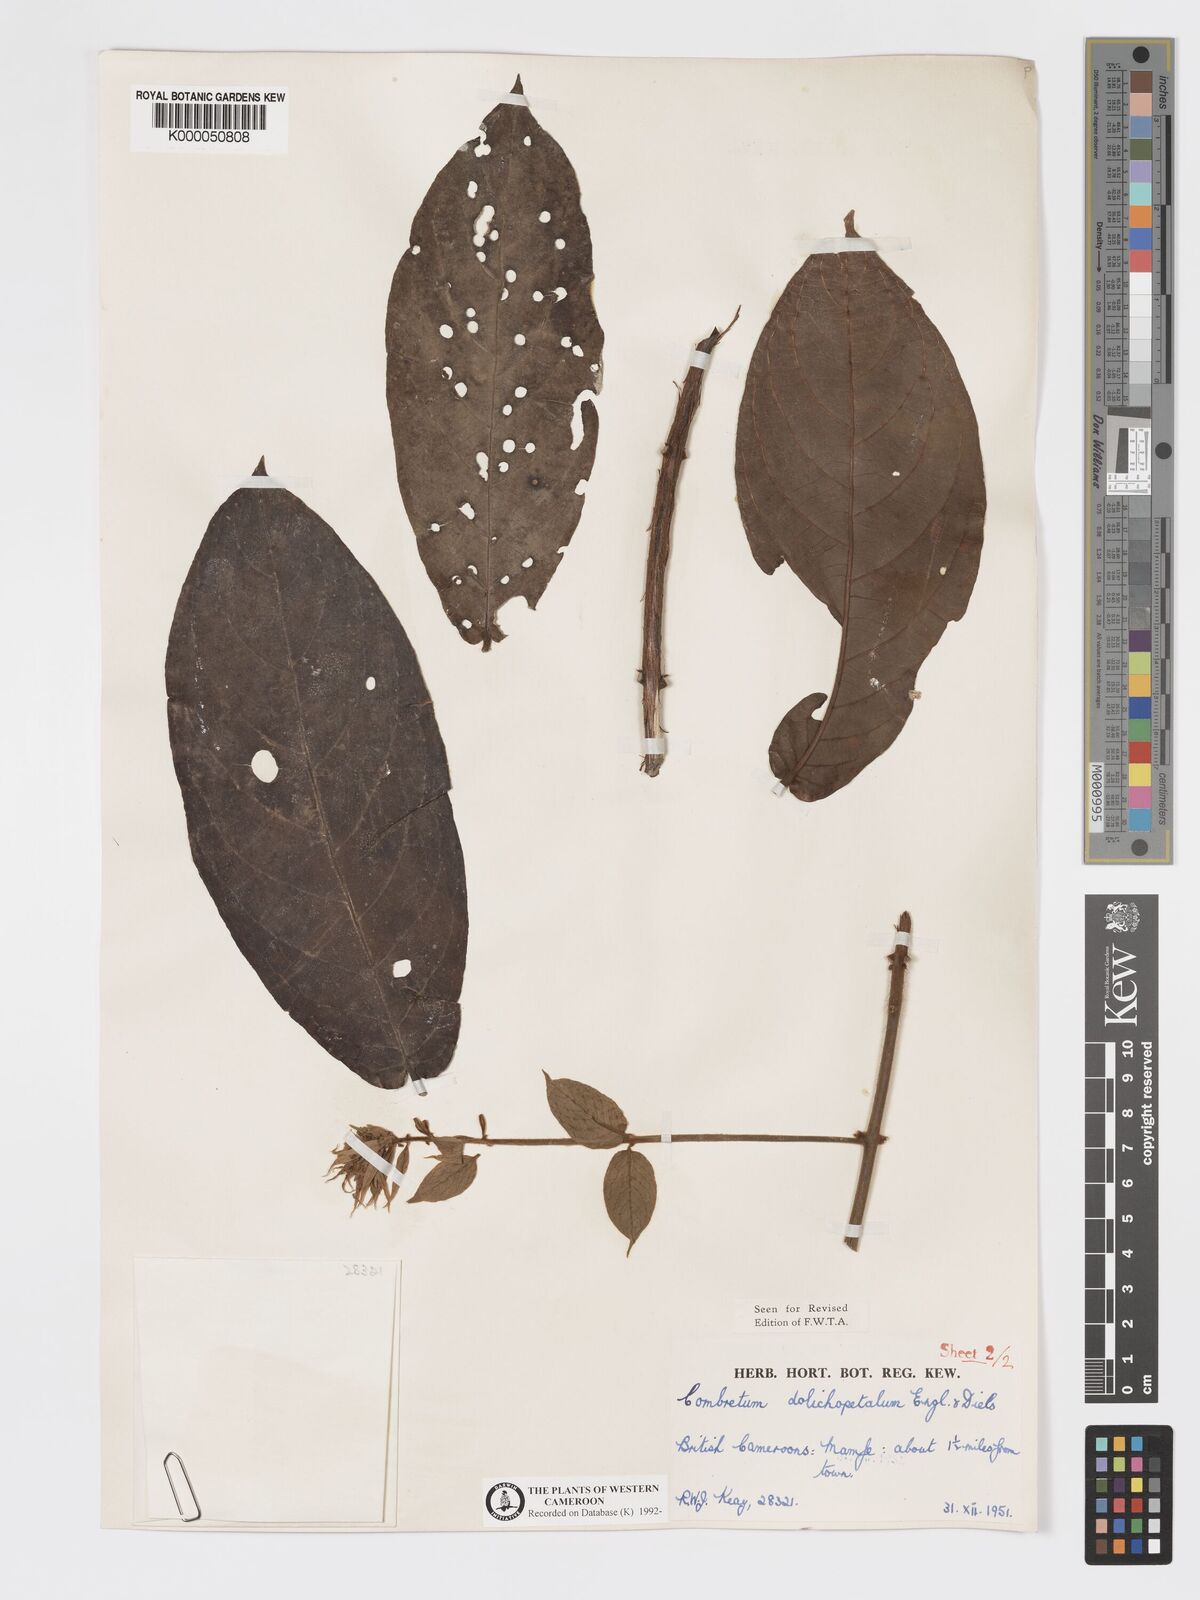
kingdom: Plantae
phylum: Tracheophyta
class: Magnoliopsida
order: Myrtales
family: Combretaceae
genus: Combretum
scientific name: Combretum comosum
